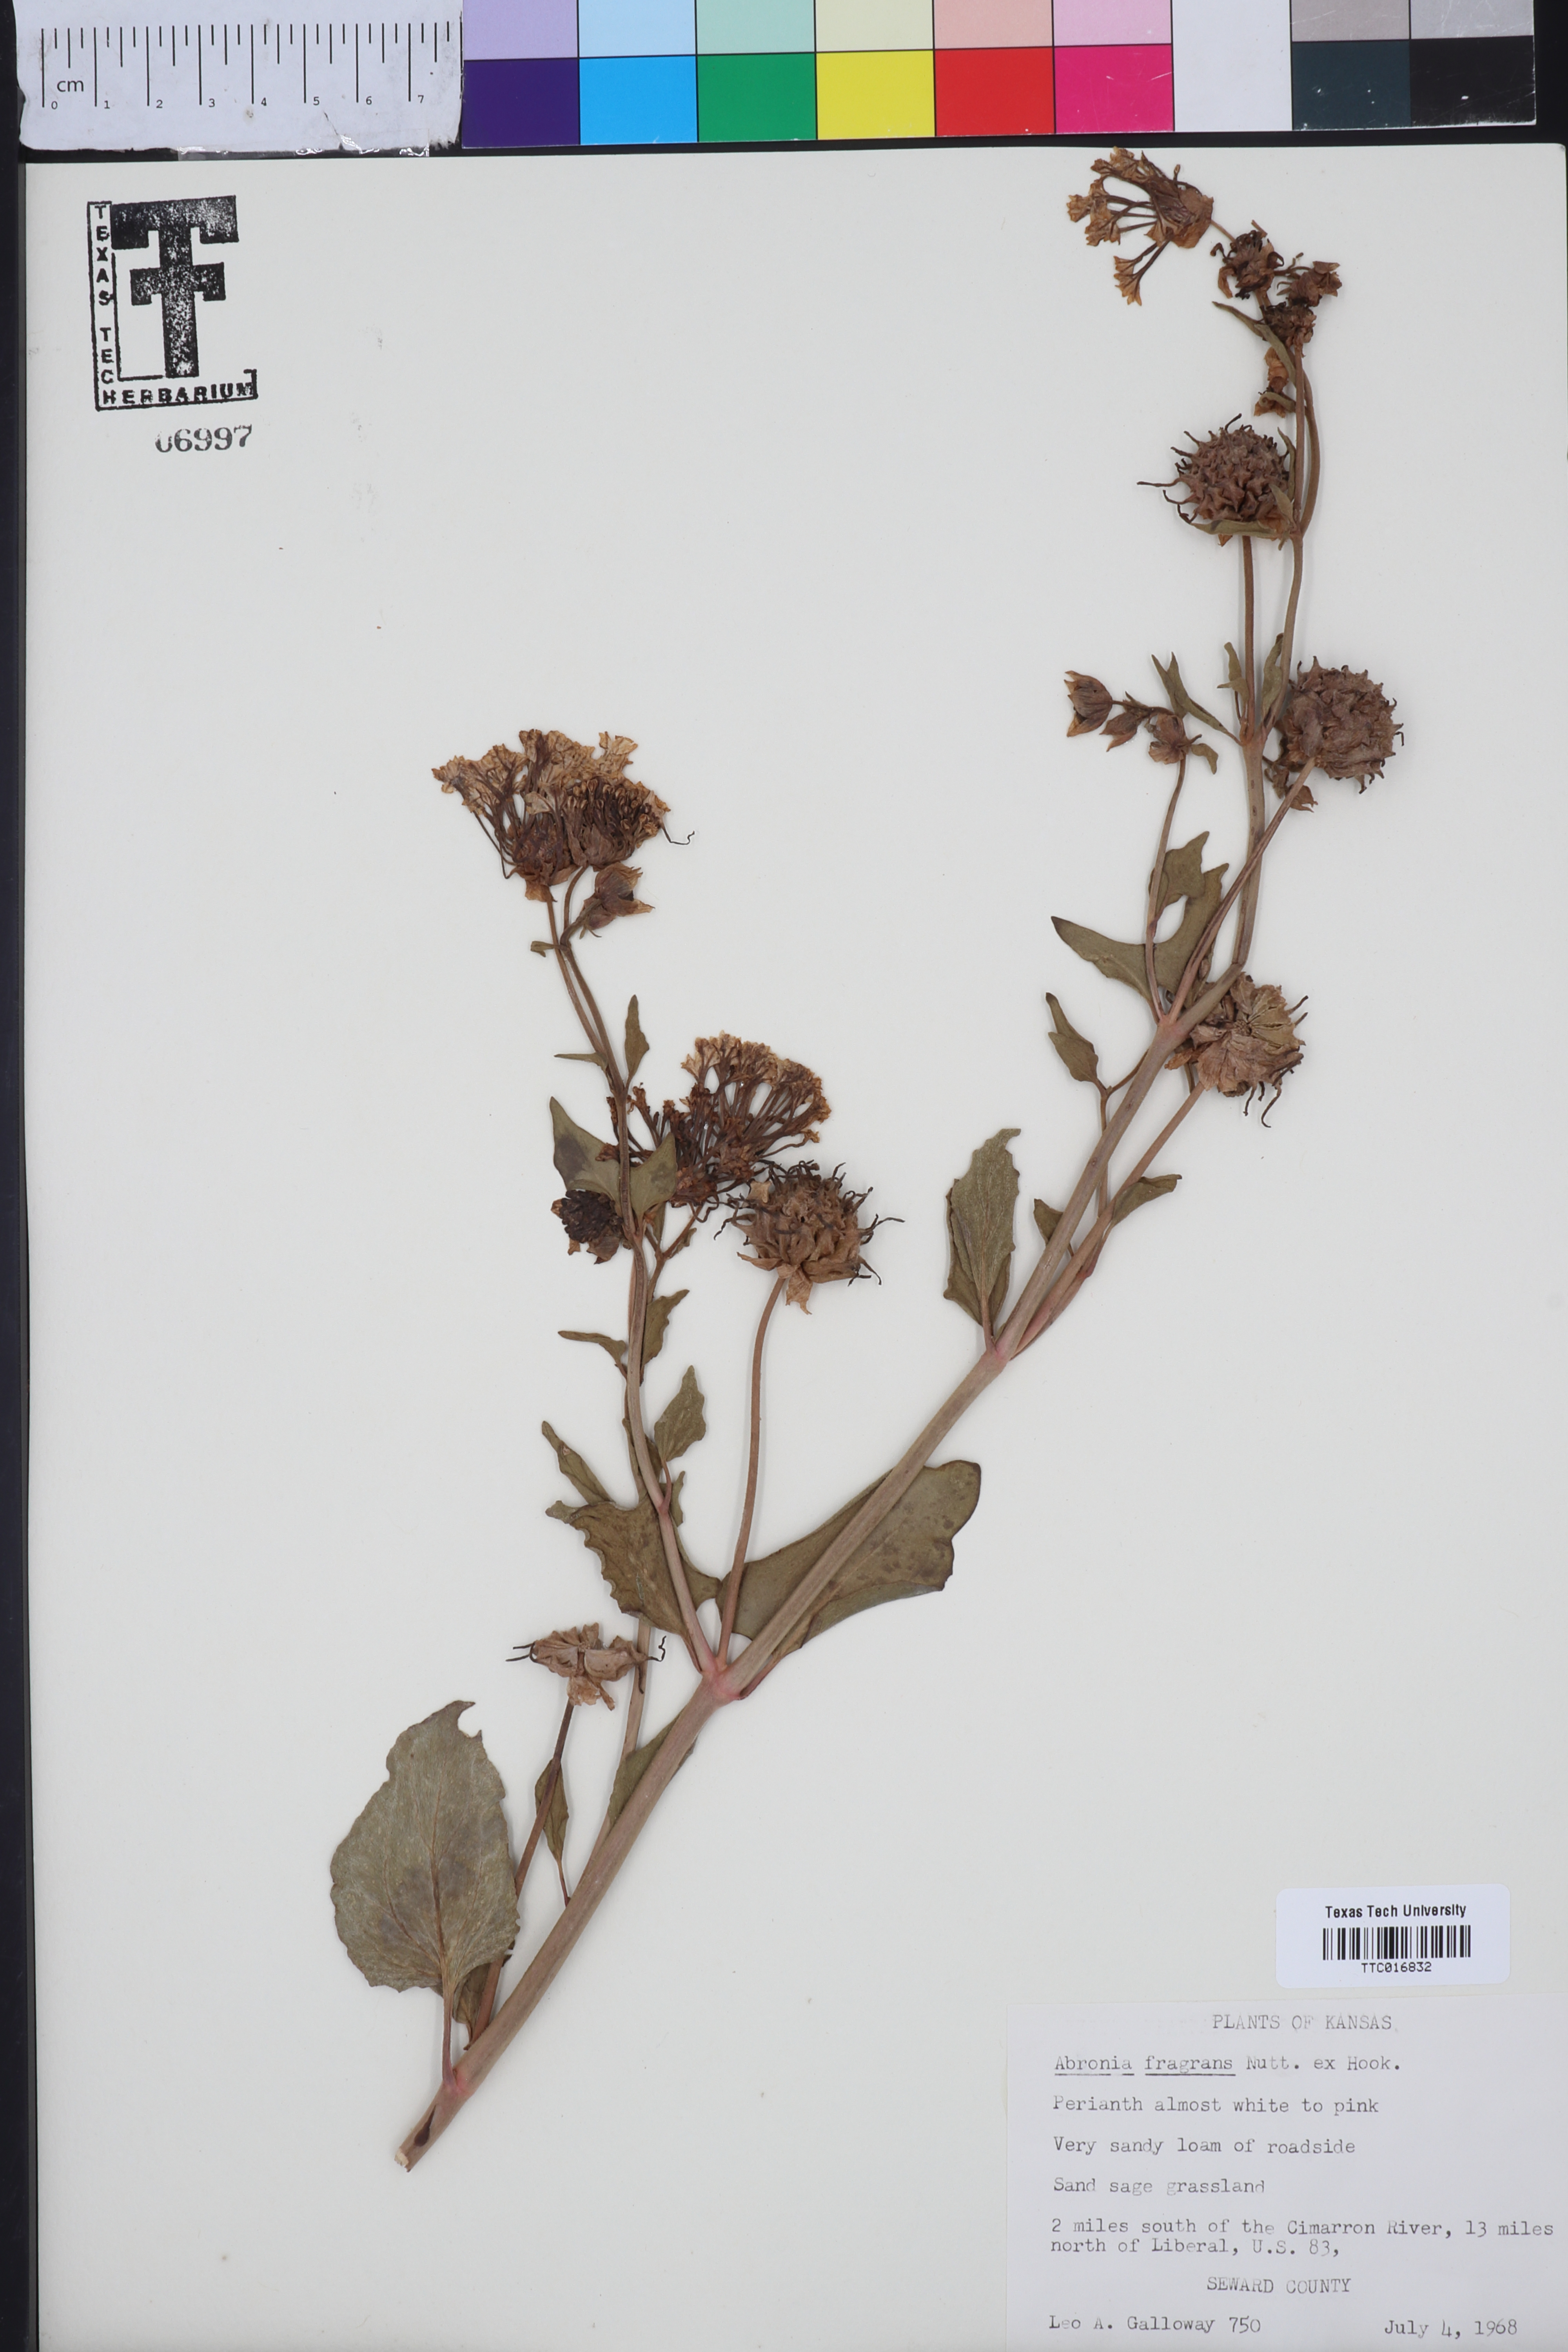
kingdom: Plantae
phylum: Tracheophyta
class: Magnoliopsida
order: Caryophyllales
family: Nyctaginaceae
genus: Abronia
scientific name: Abronia fragrans
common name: Fragrant sand-verbena
